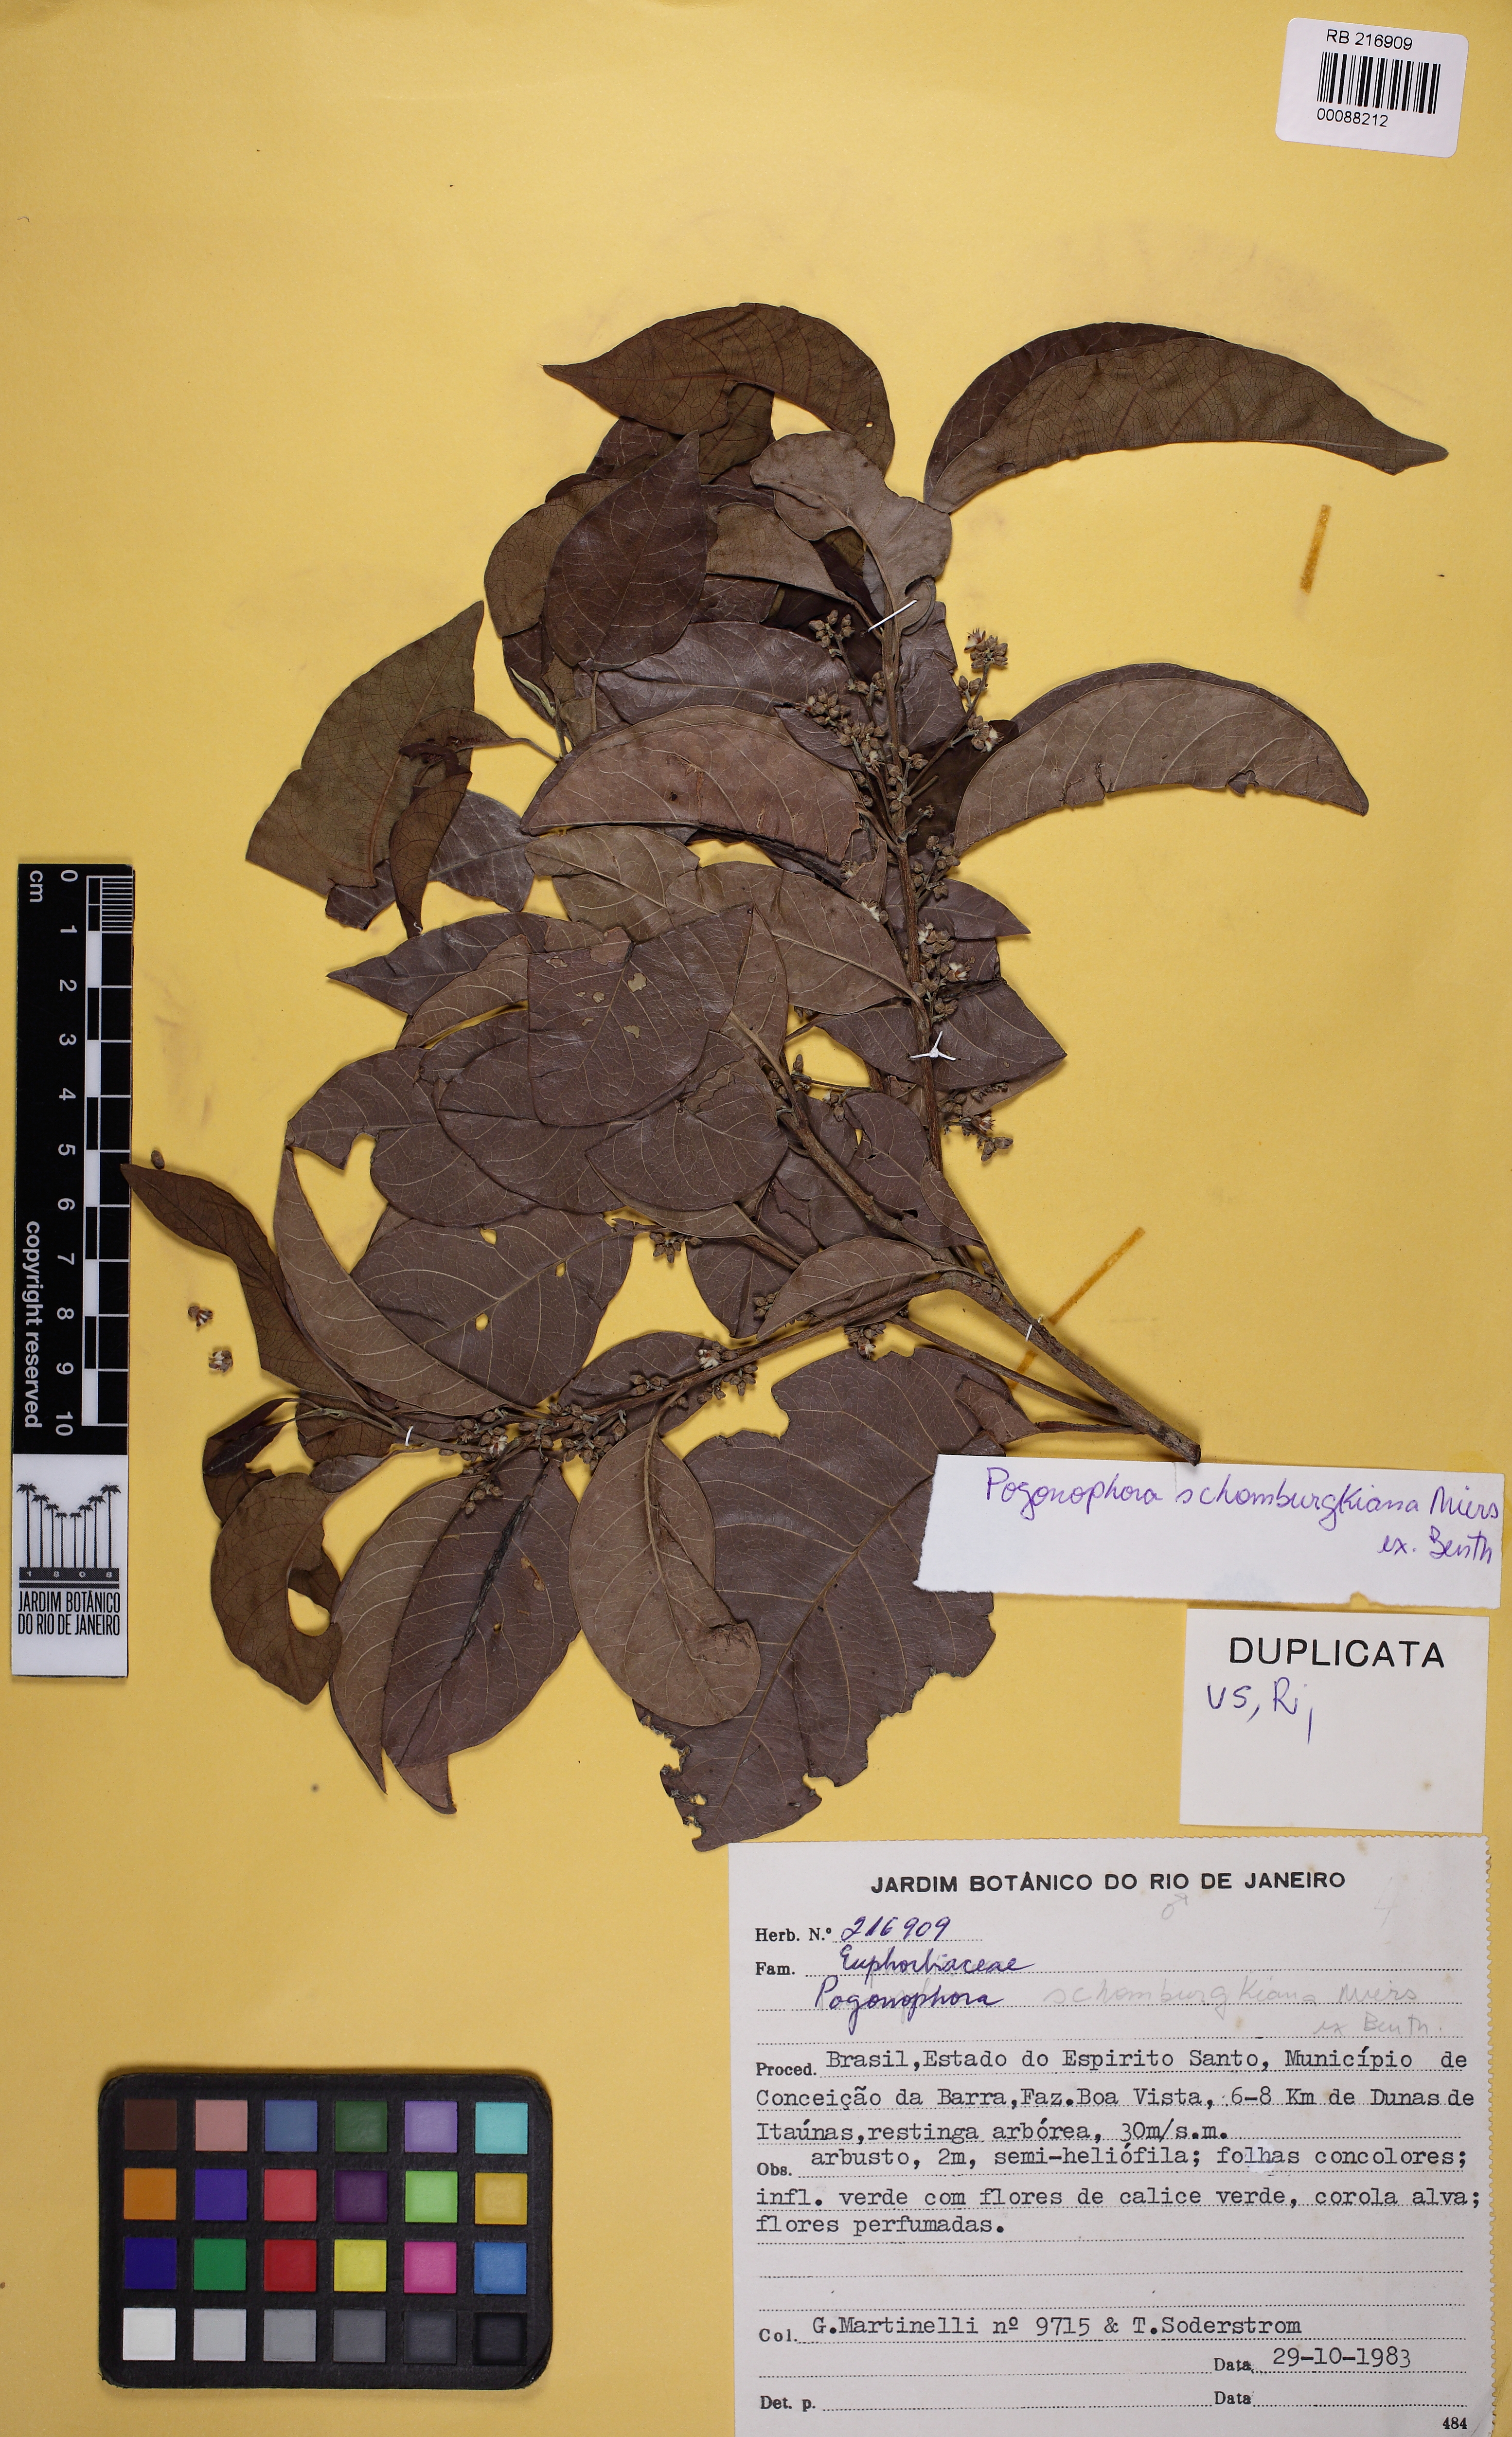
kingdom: Plantae
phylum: Tracheophyta
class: Magnoliopsida
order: Malpighiales
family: Peraceae
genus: Pogonophora
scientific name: Pogonophora schomburgkiana
